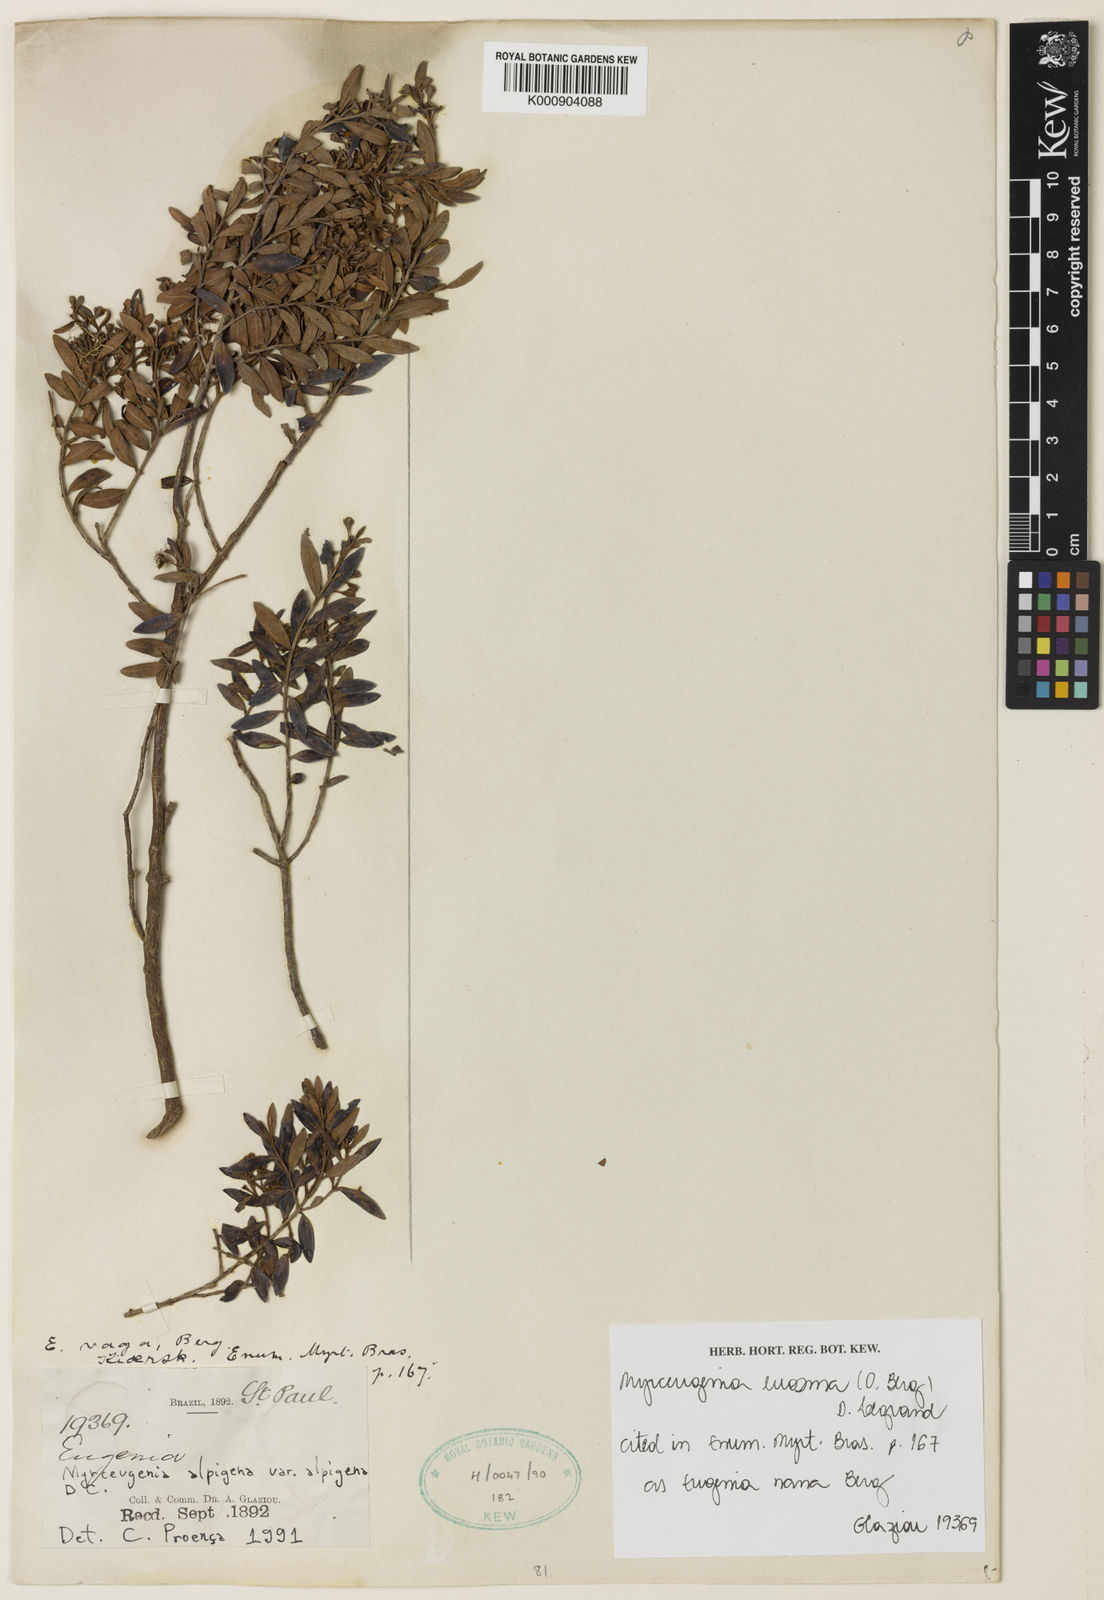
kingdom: Plantae
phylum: Tracheophyta
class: Magnoliopsida
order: Myrtales
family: Myrtaceae
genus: Myrceugenia
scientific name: Myrceugenia euosma
